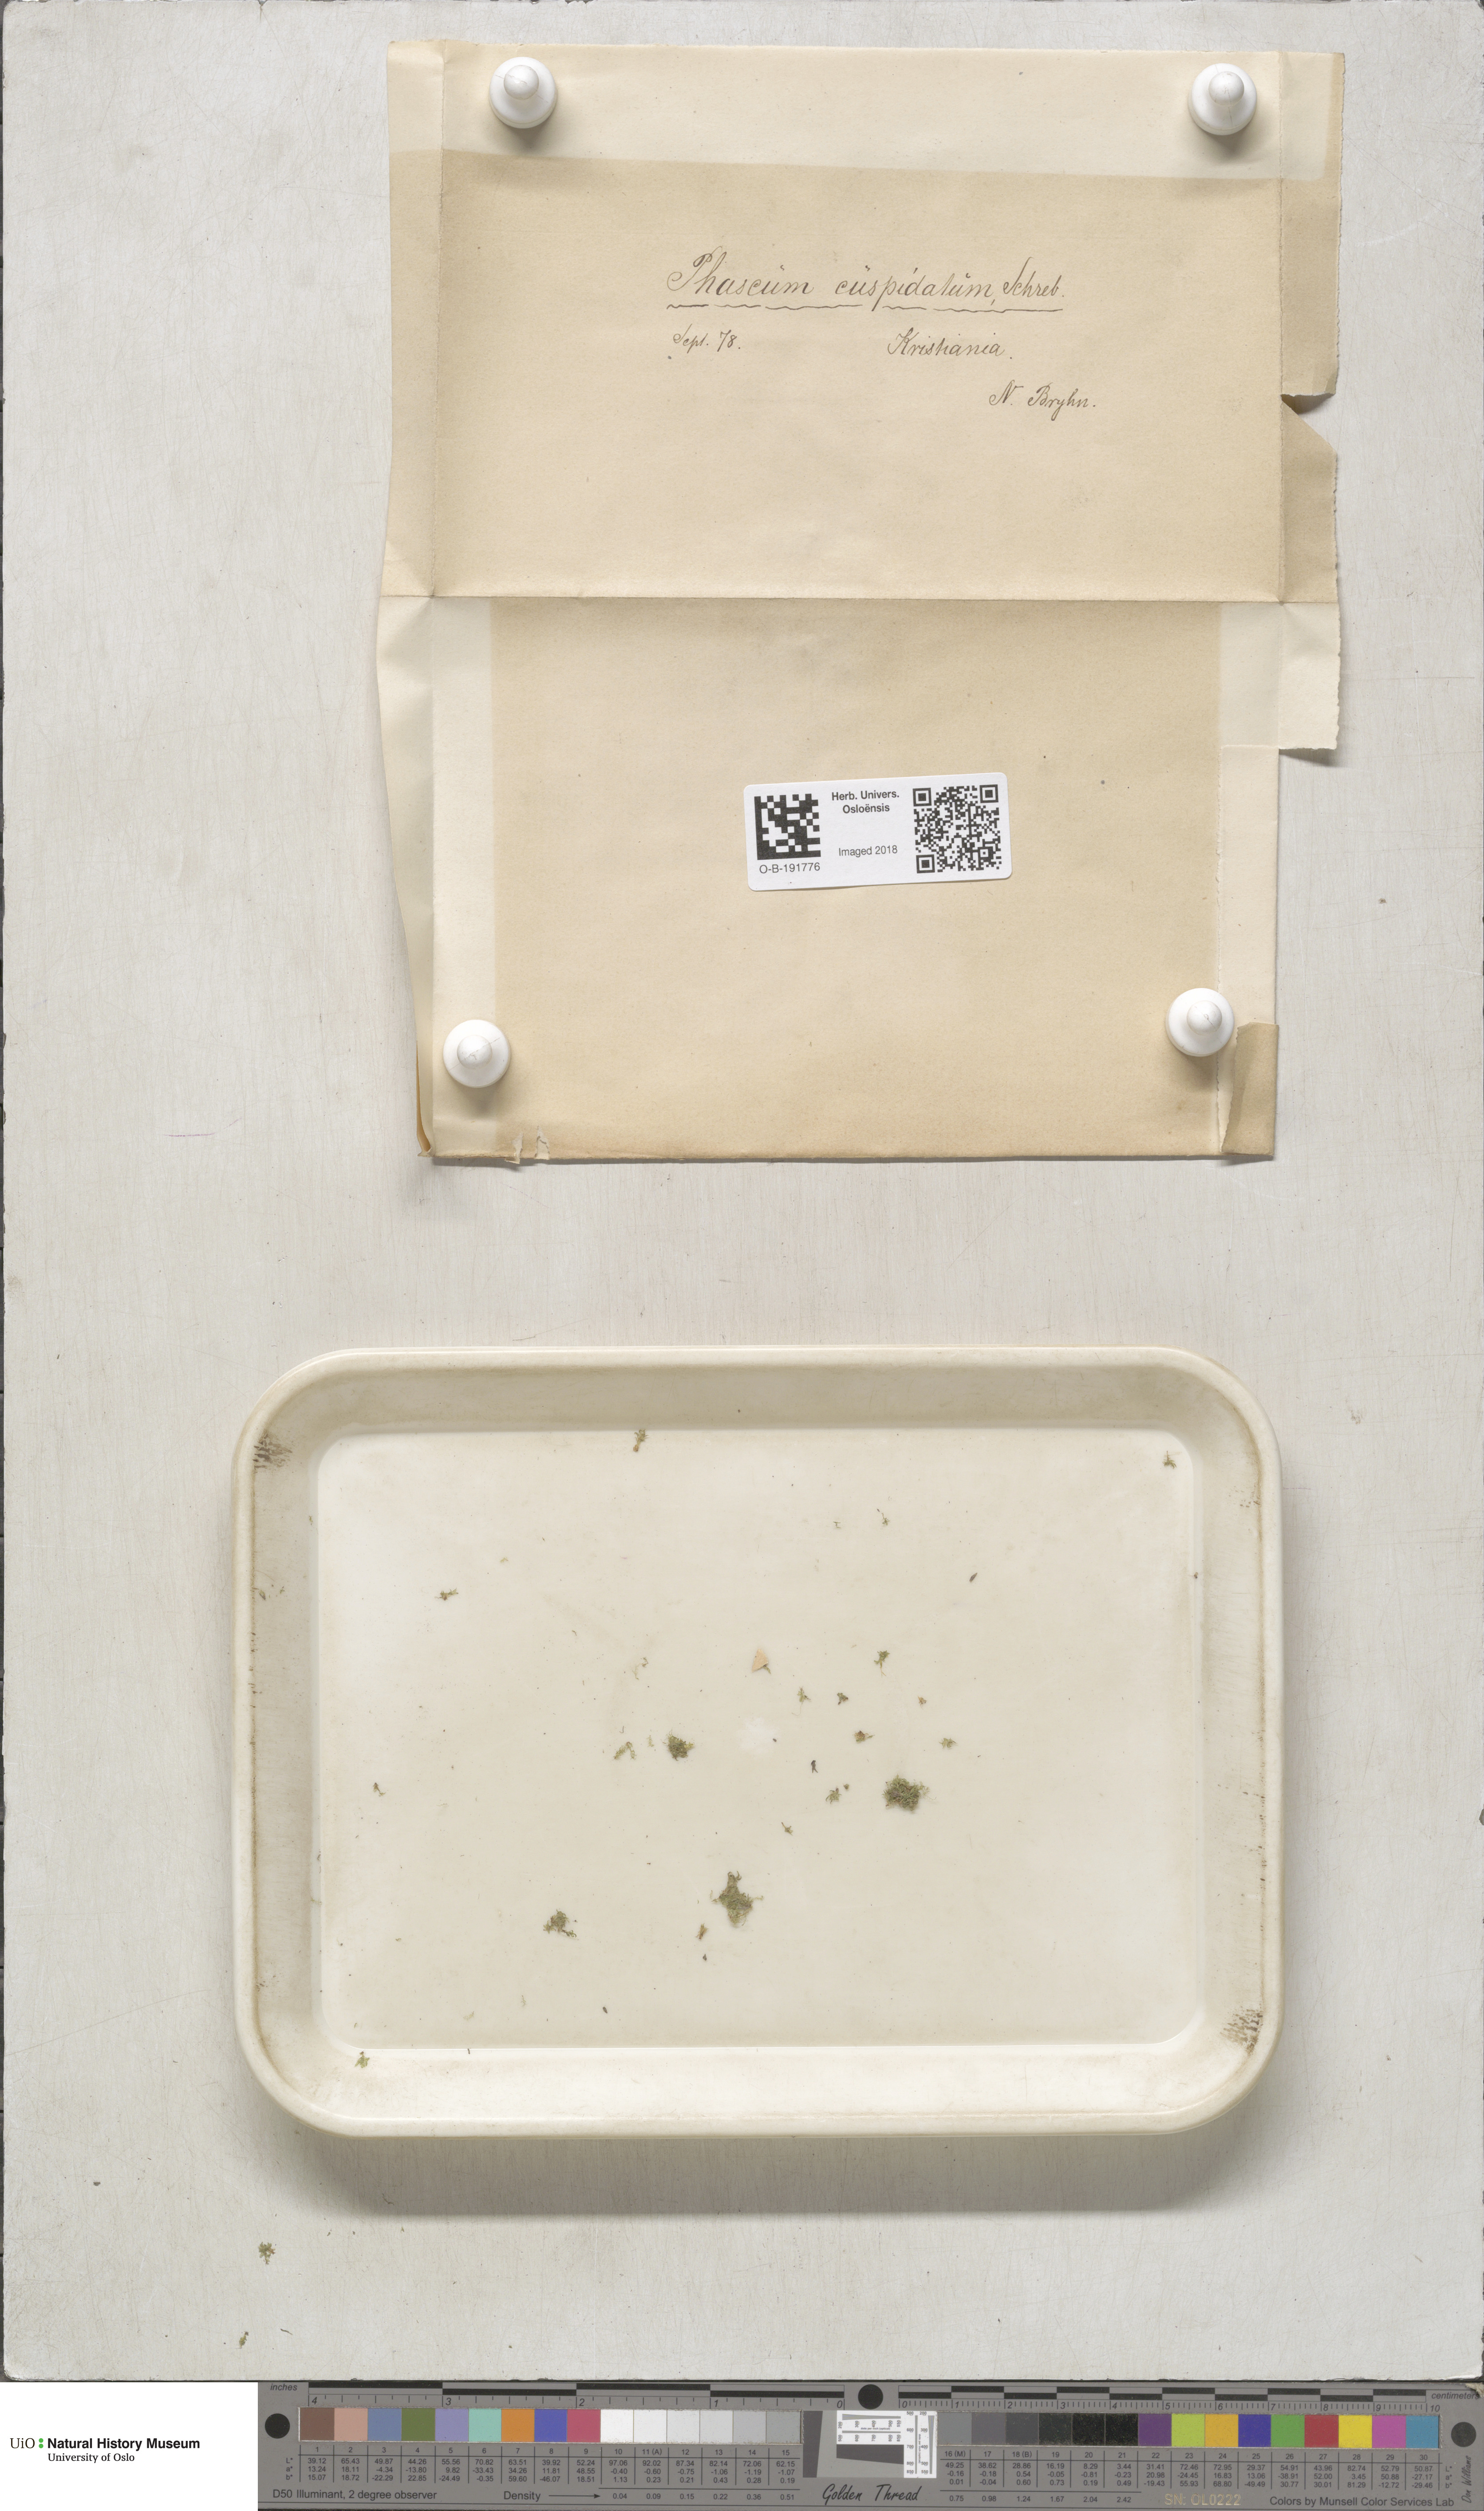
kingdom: Plantae
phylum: Bryophyta
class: Bryopsida
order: Pottiales
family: Pottiaceae
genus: Tortula
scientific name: Tortula acaulon
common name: Cuspidate earth moss
